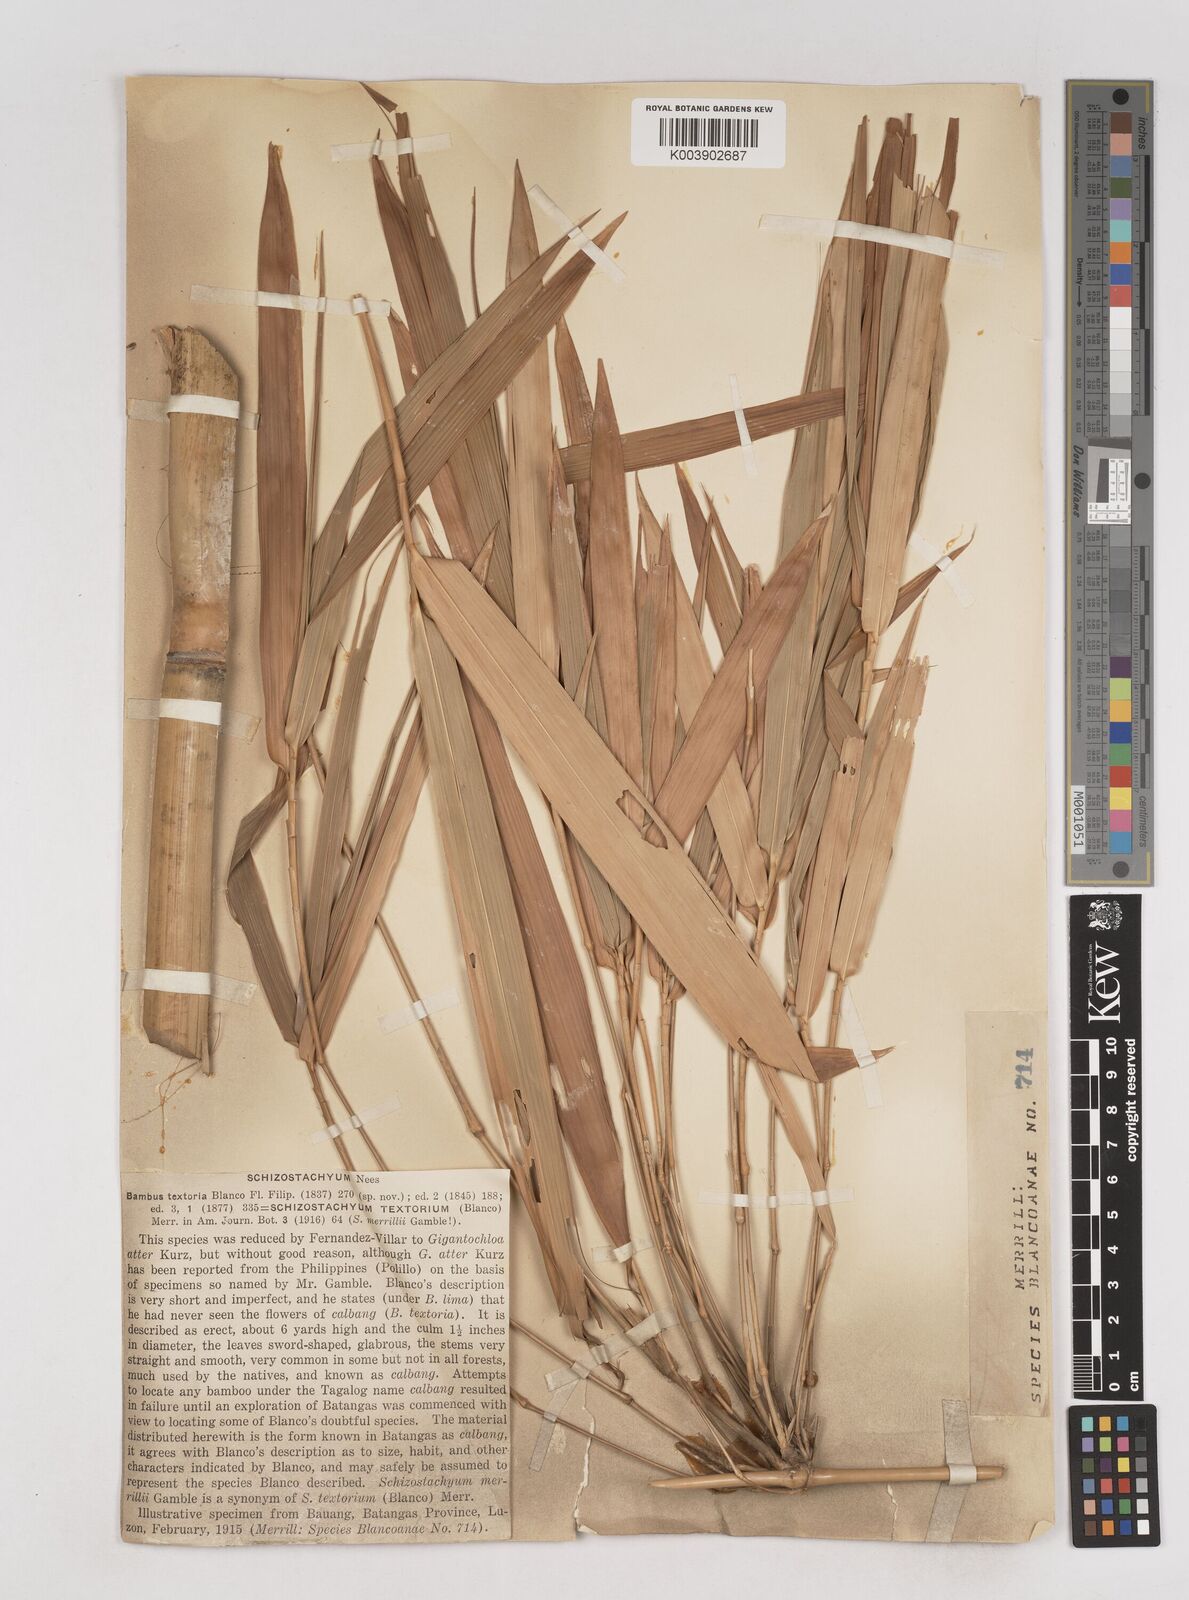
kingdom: Plantae
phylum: Tracheophyta
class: Liliopsida
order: Poales
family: Poaceae
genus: Schizostachyum
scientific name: Schizostachyum textorium
